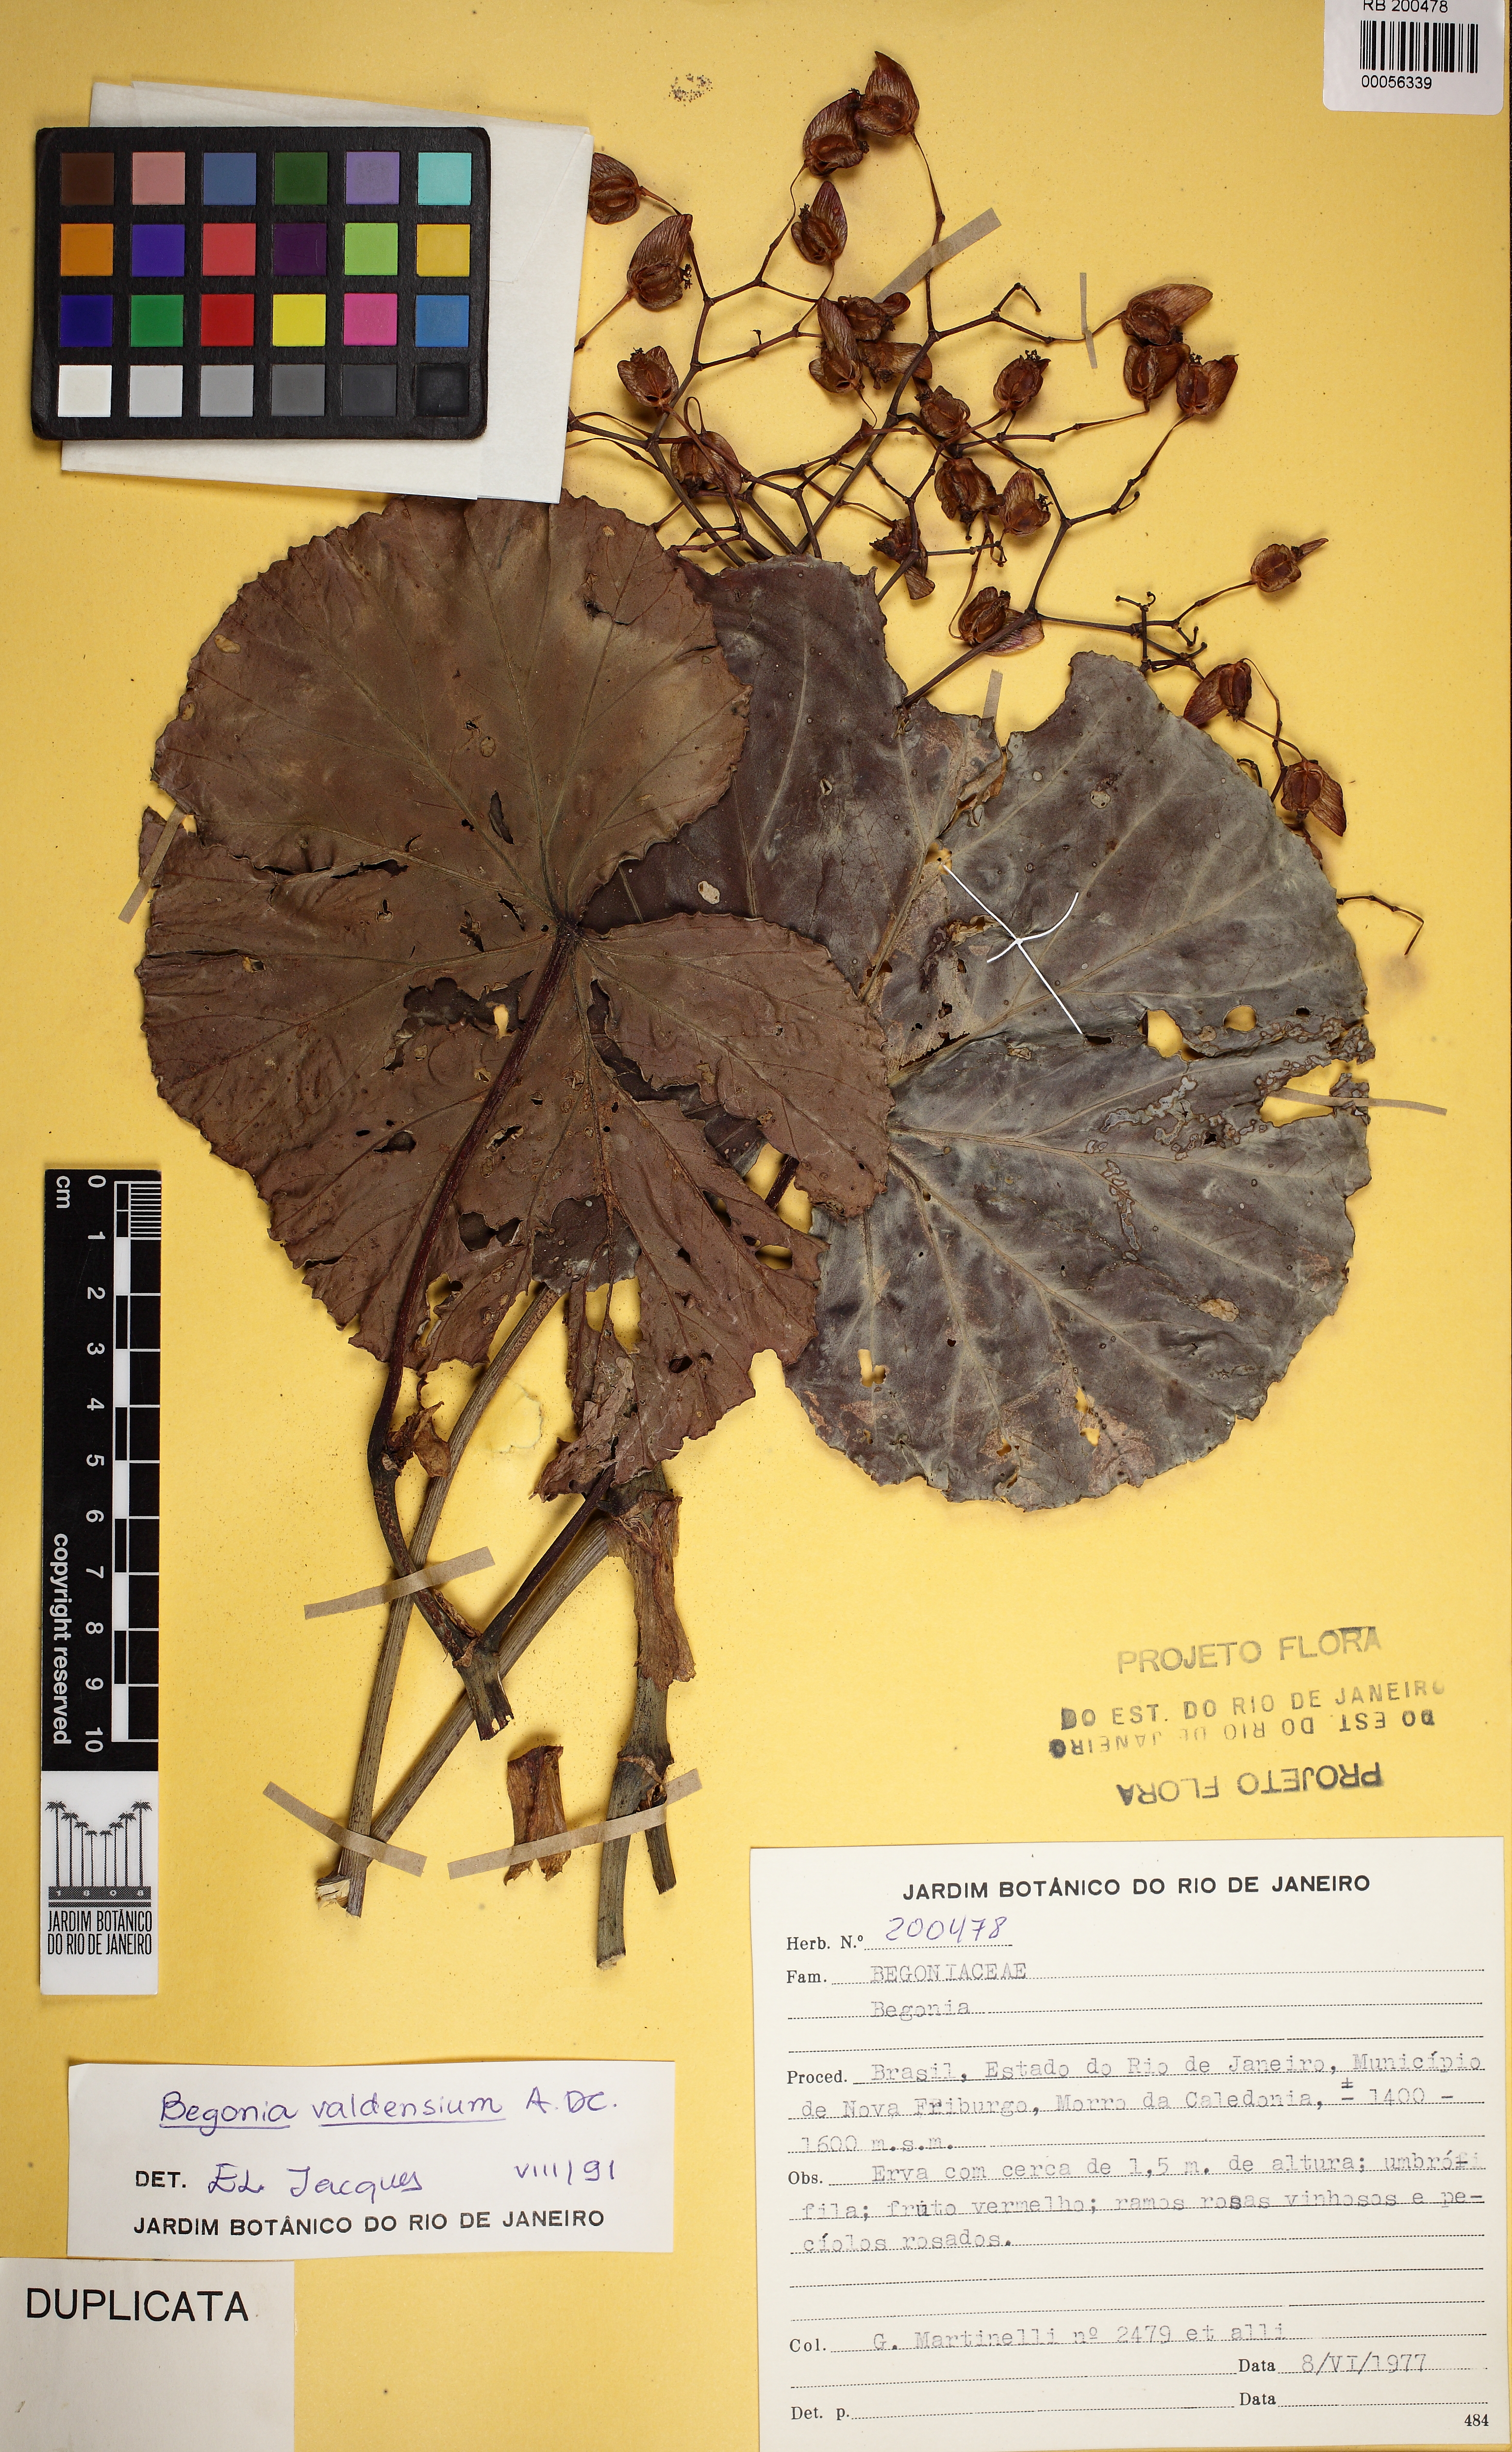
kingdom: Plantae
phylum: Tracheophyta
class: Magnoliopsida
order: Cucurbitales
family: Begoniaceae
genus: Begonia
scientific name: Begonia valdensium
